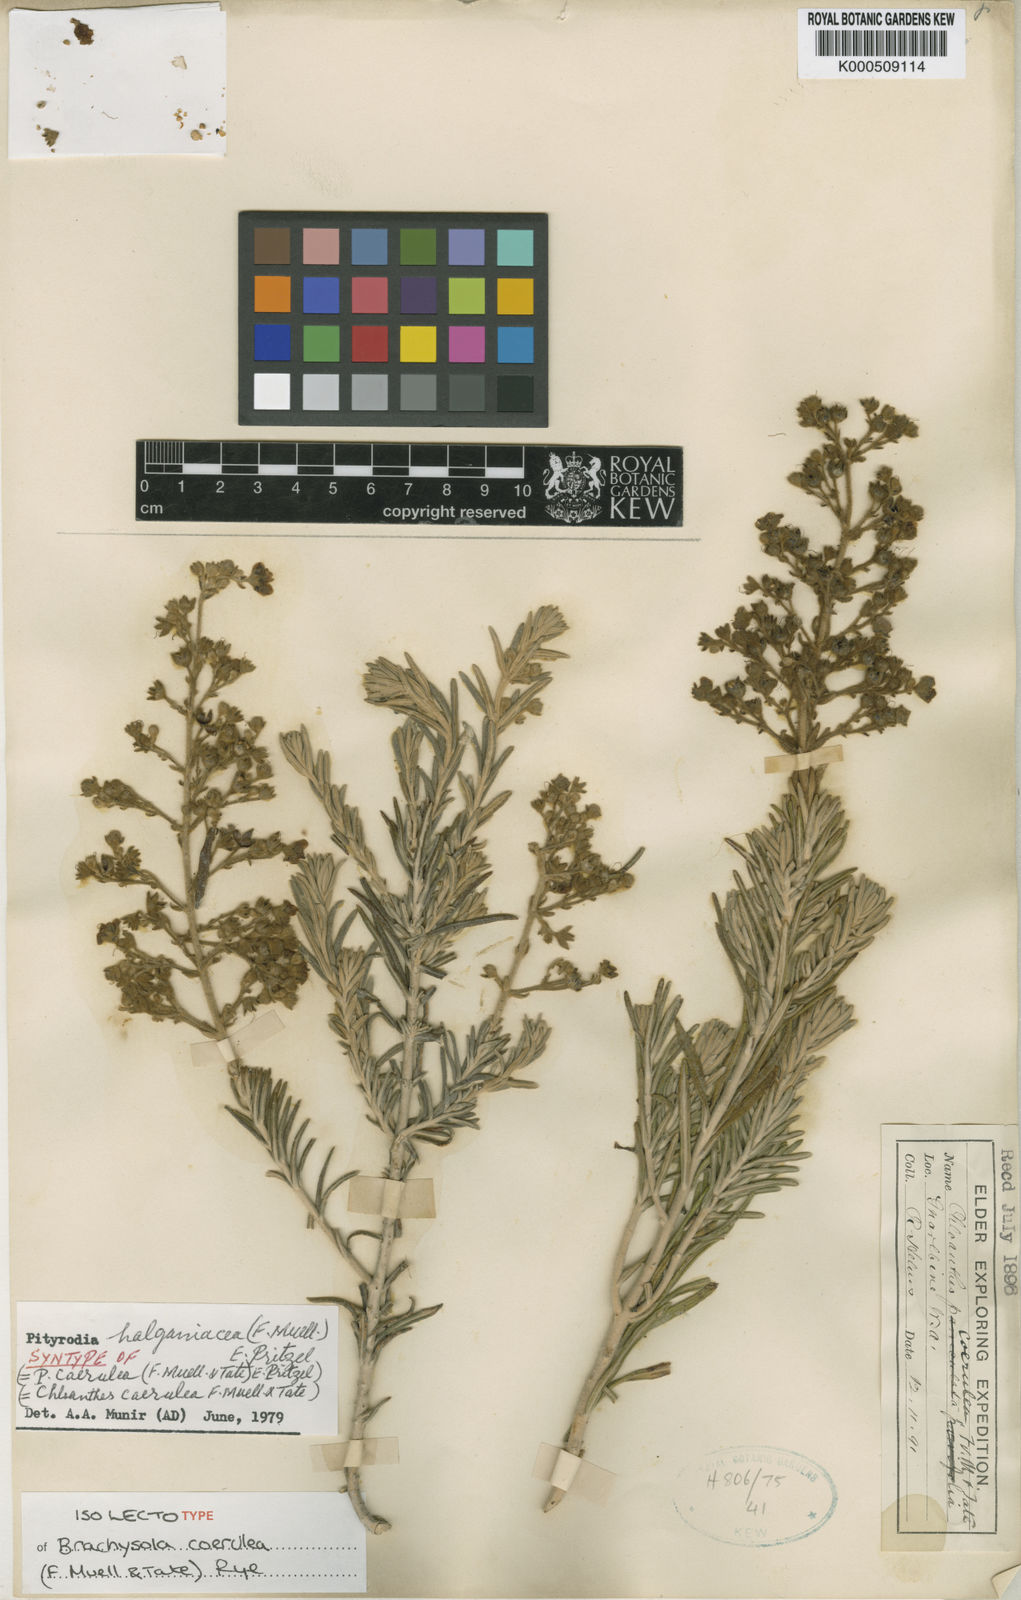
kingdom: Plantae
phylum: Tracheophyta
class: Magnoliopsida
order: Lamiales
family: Lamiaceae
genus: Brachysola
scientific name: Brachysola coerulea
